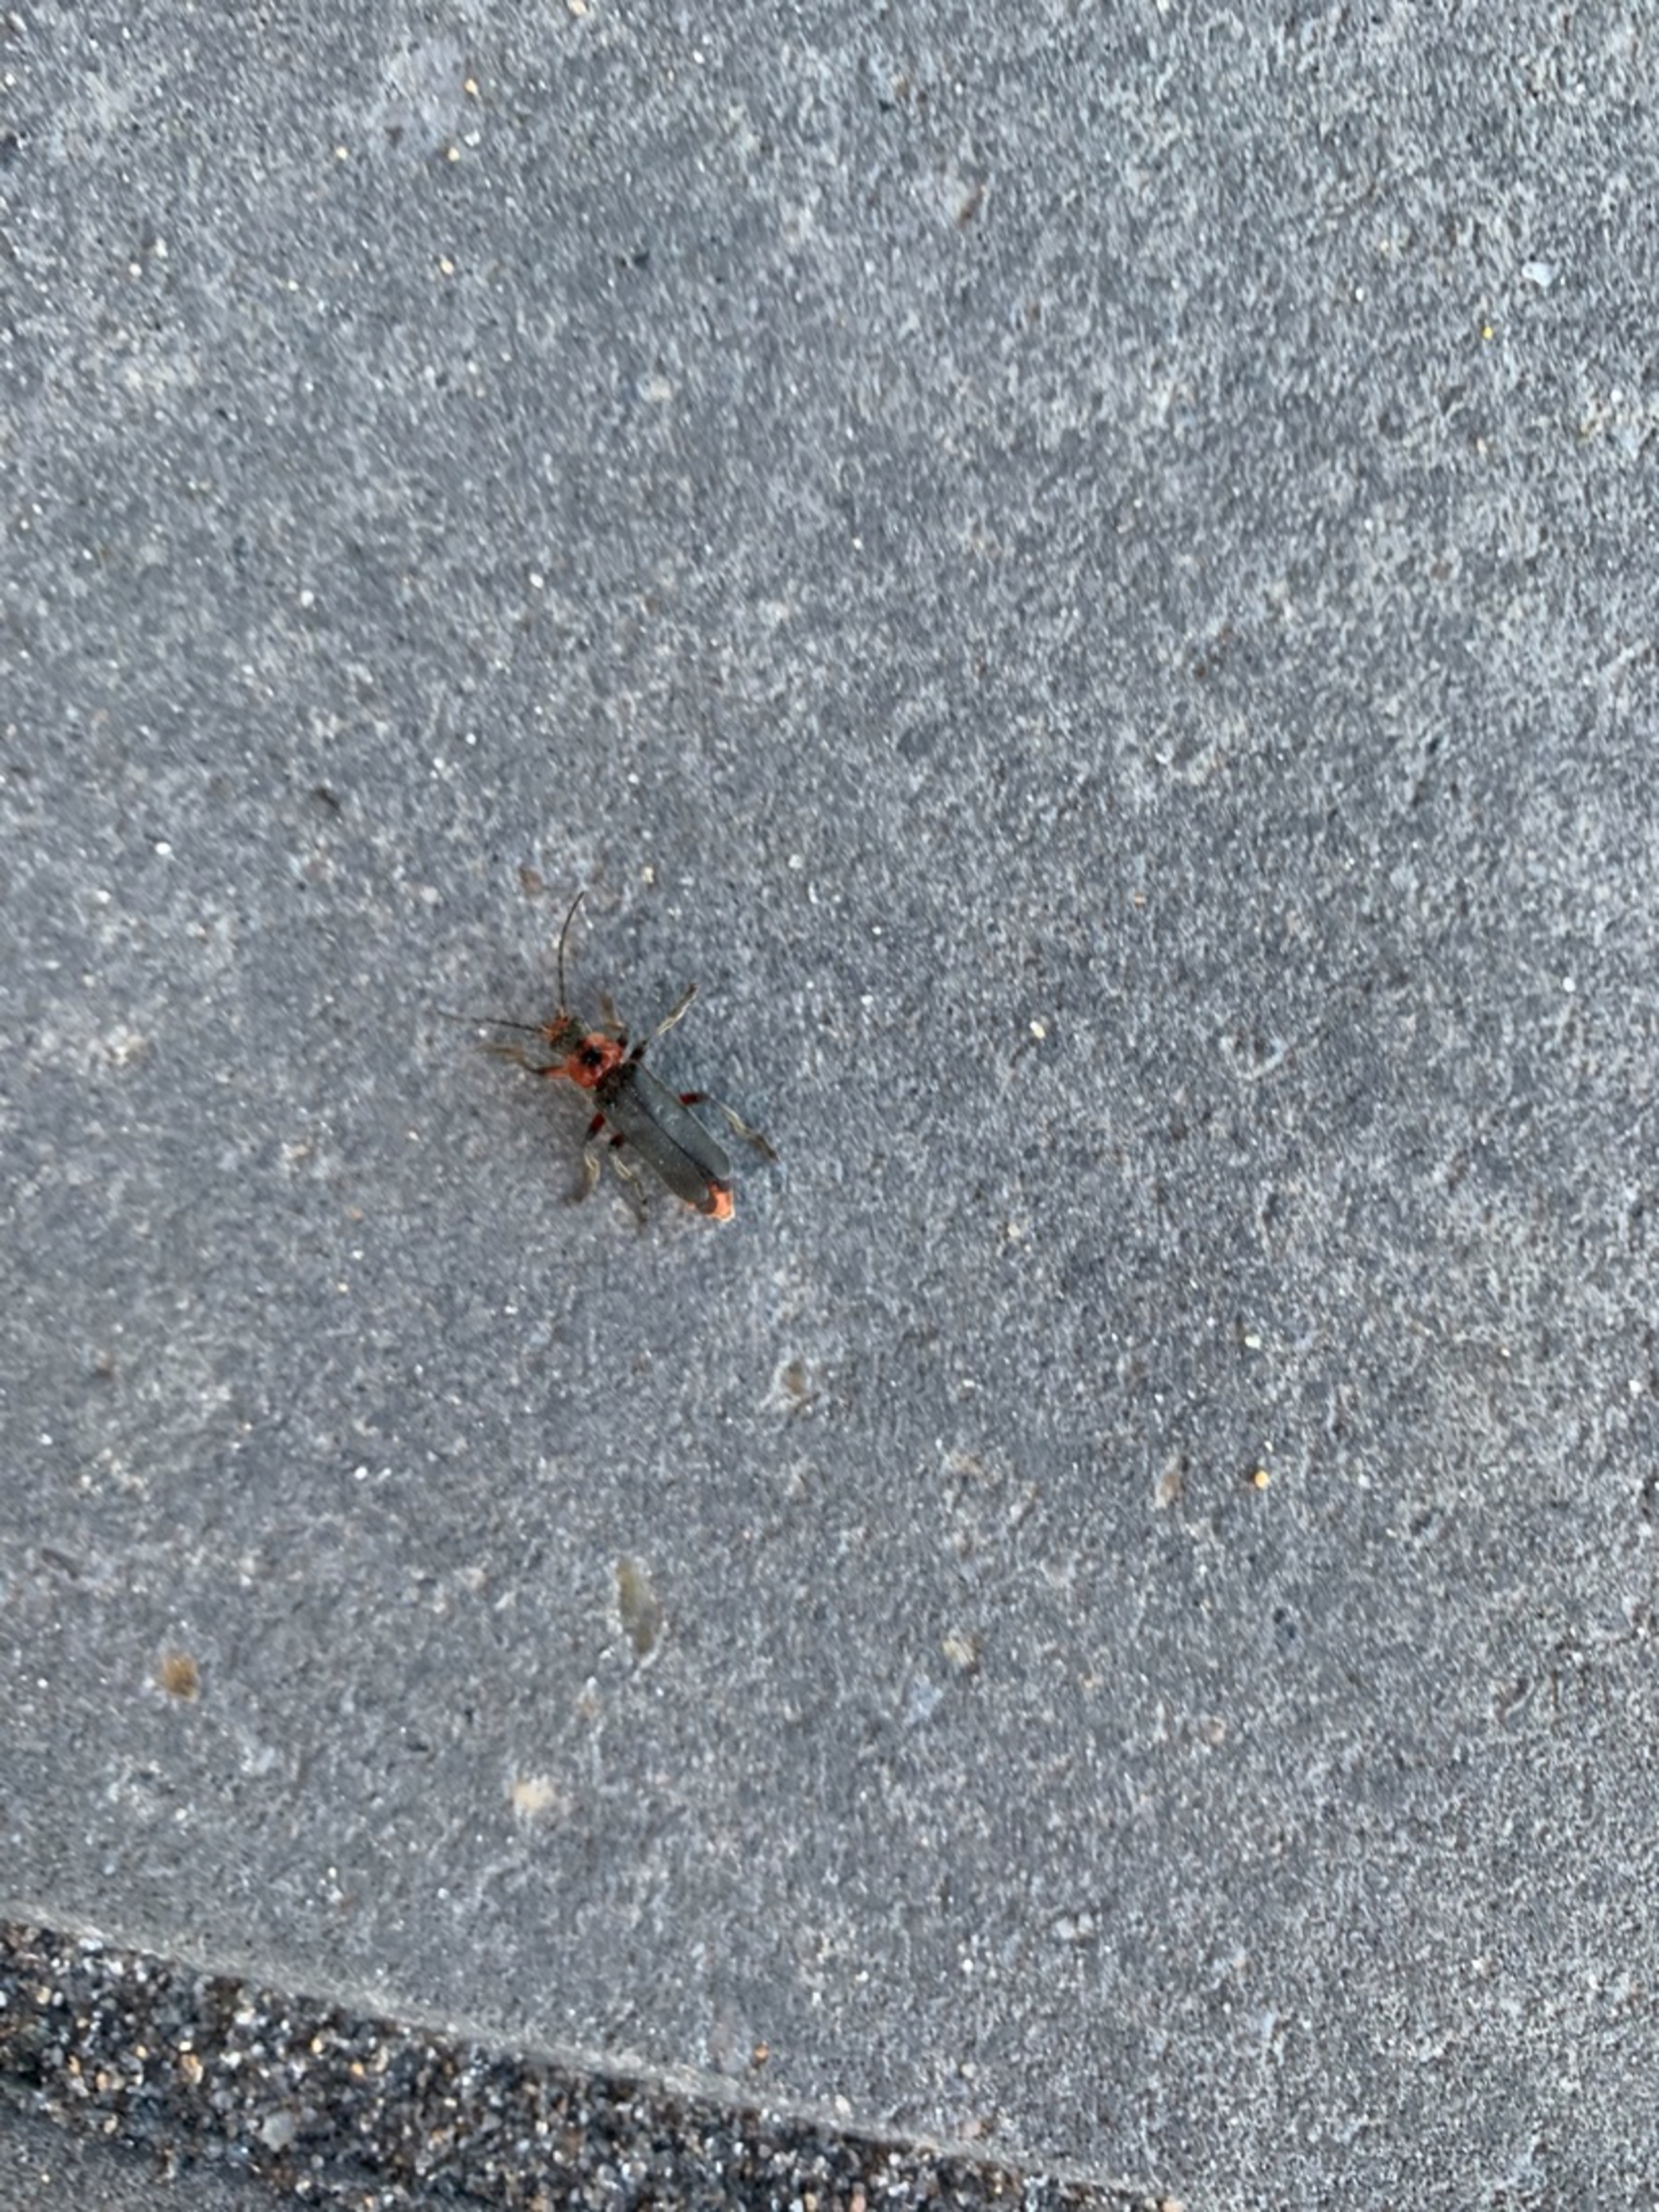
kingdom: Animalia
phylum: Arthropoda
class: Insecta
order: Coleoptera
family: Cantharidae
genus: Cantharis
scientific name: Cantharis rustica
